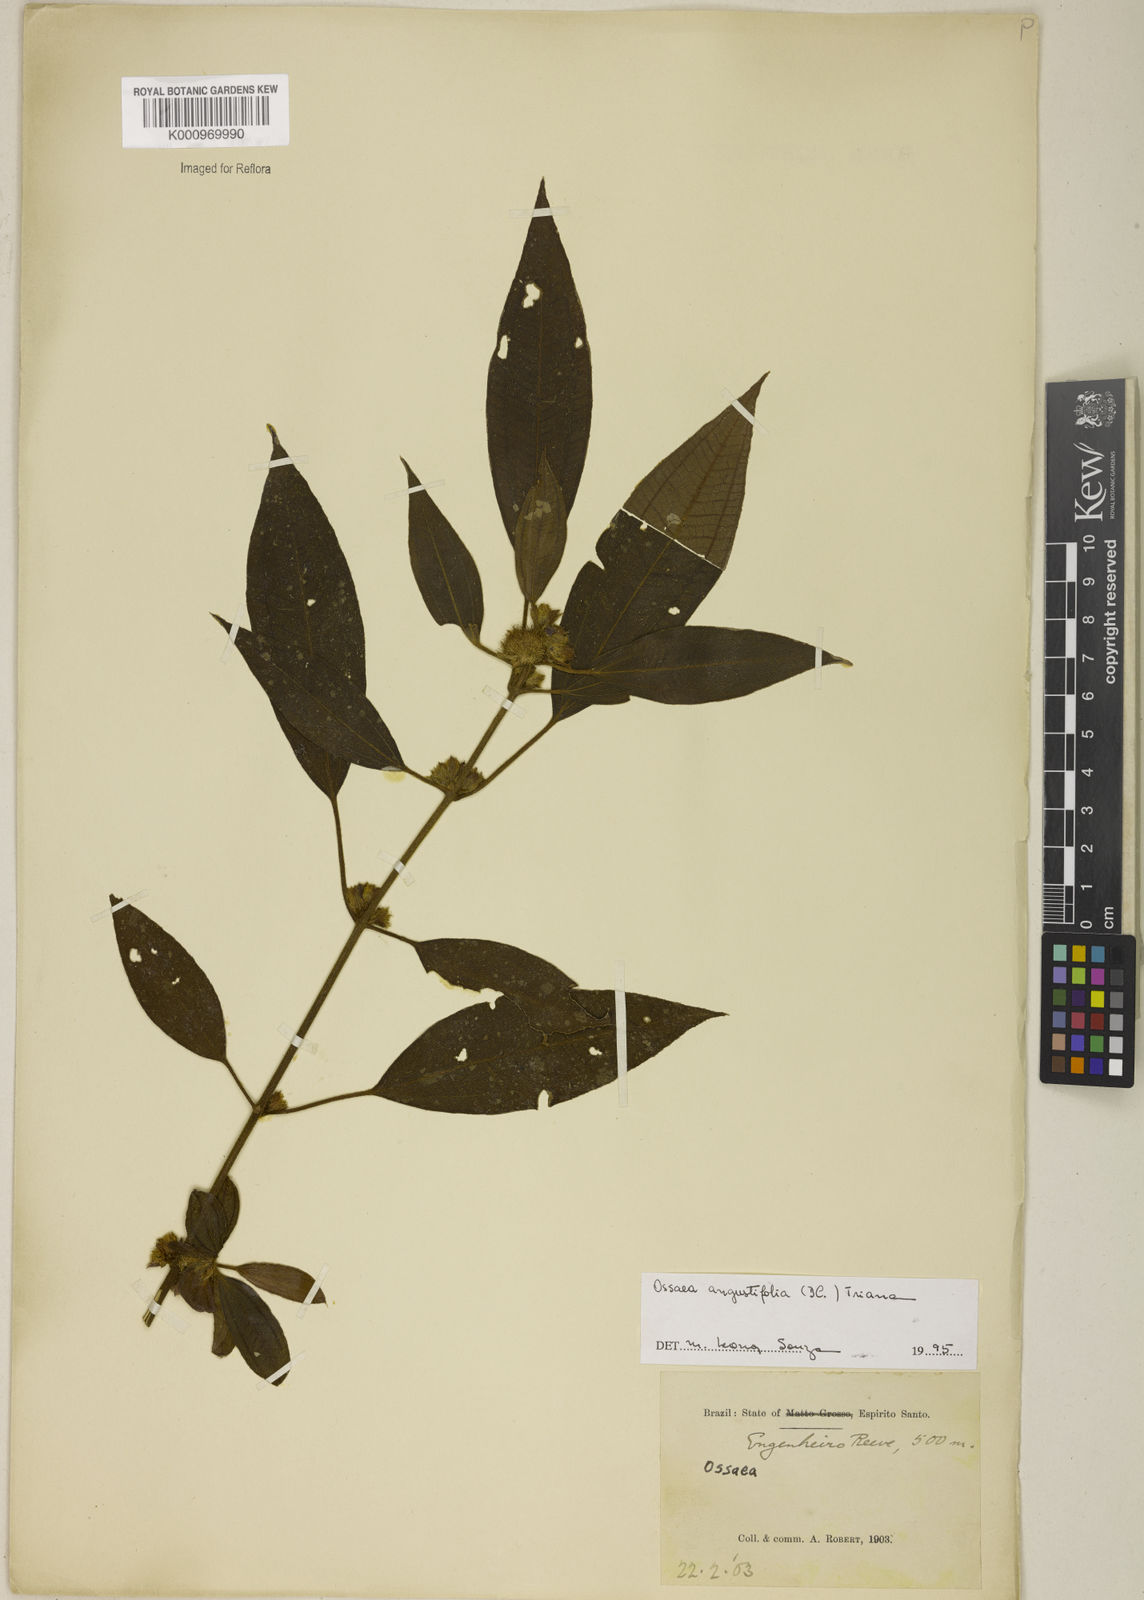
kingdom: Plantae
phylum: Tracheophyta
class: Magnoliopsida
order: Myrtales
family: Melastomataceae
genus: Miconia
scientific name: Miconia corcovadensis
